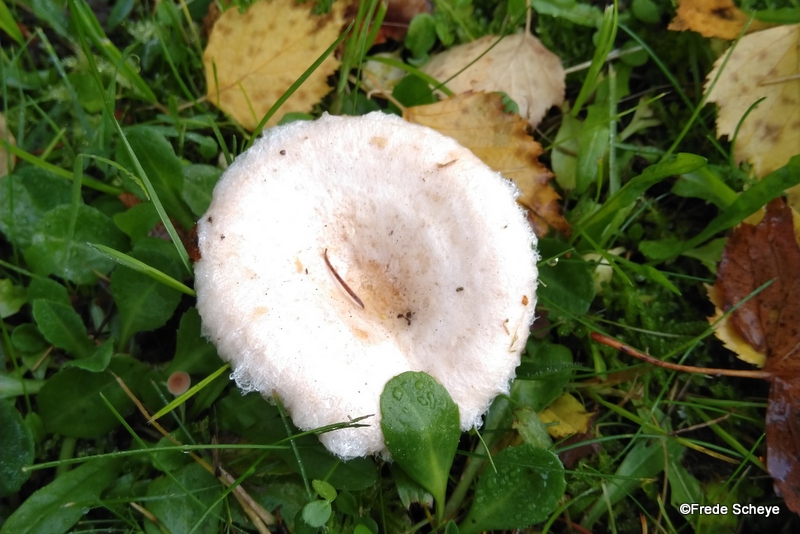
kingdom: Fungi
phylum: Basidiomycota
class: Agaricomycetes
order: Russulales
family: Russulaceae
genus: Lactarius
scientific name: Lactarius pubescens
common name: dunet mælkehat
